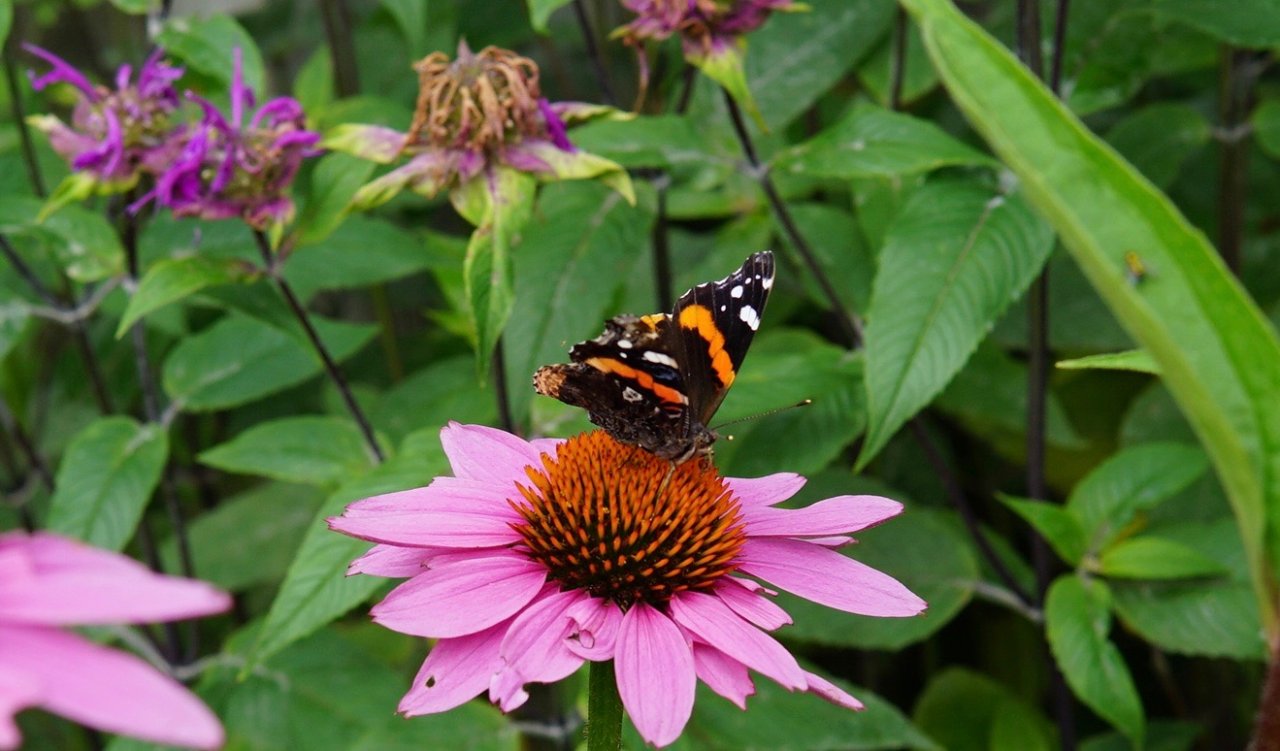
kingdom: Animalia
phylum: Arthropoda
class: Insecta
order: Lepidoptera
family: Nymphalidae
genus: Vanessa
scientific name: Vanessa atalanta
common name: Red Admiral
